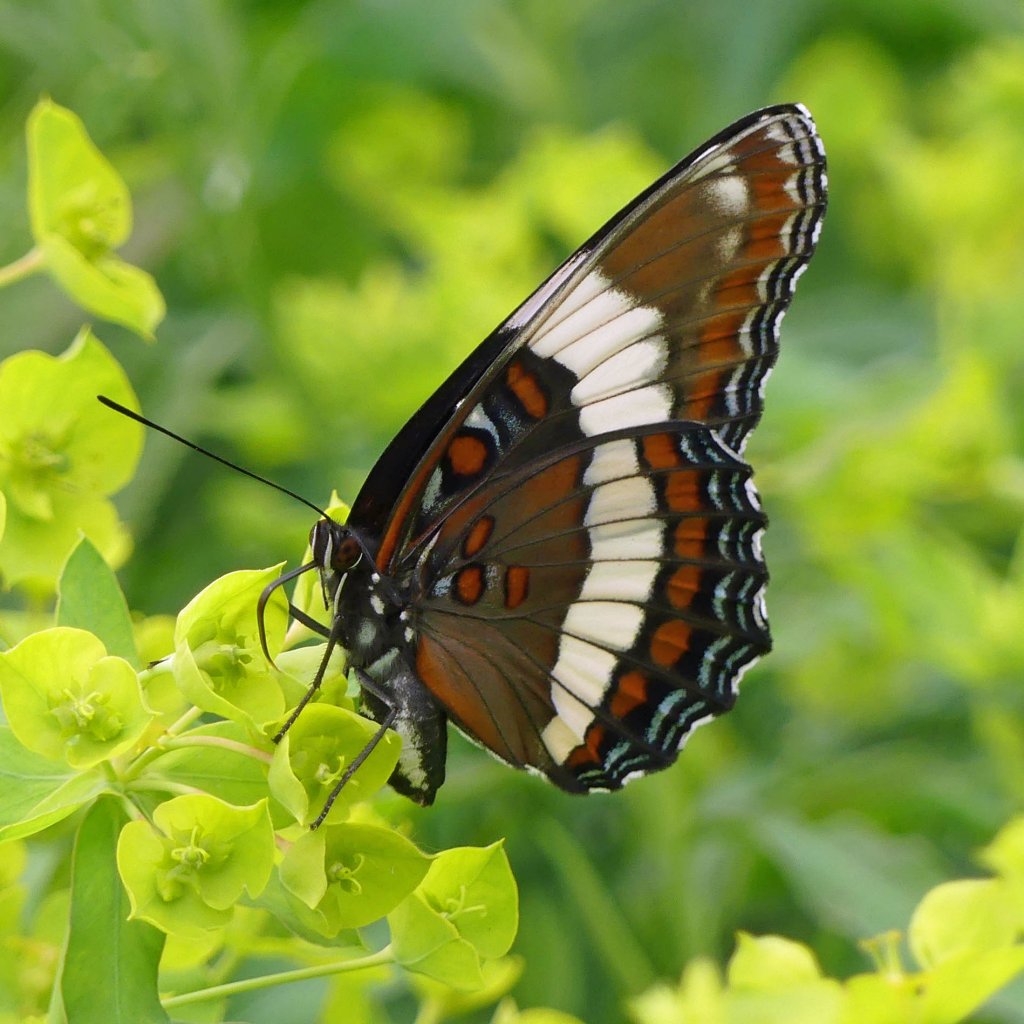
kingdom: Animalia
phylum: Arthropoda
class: Insecta
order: Lepidoptera
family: Nymphalidae
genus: Limenitis
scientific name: Limenitis arthemis
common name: Red-spotted Admiral
